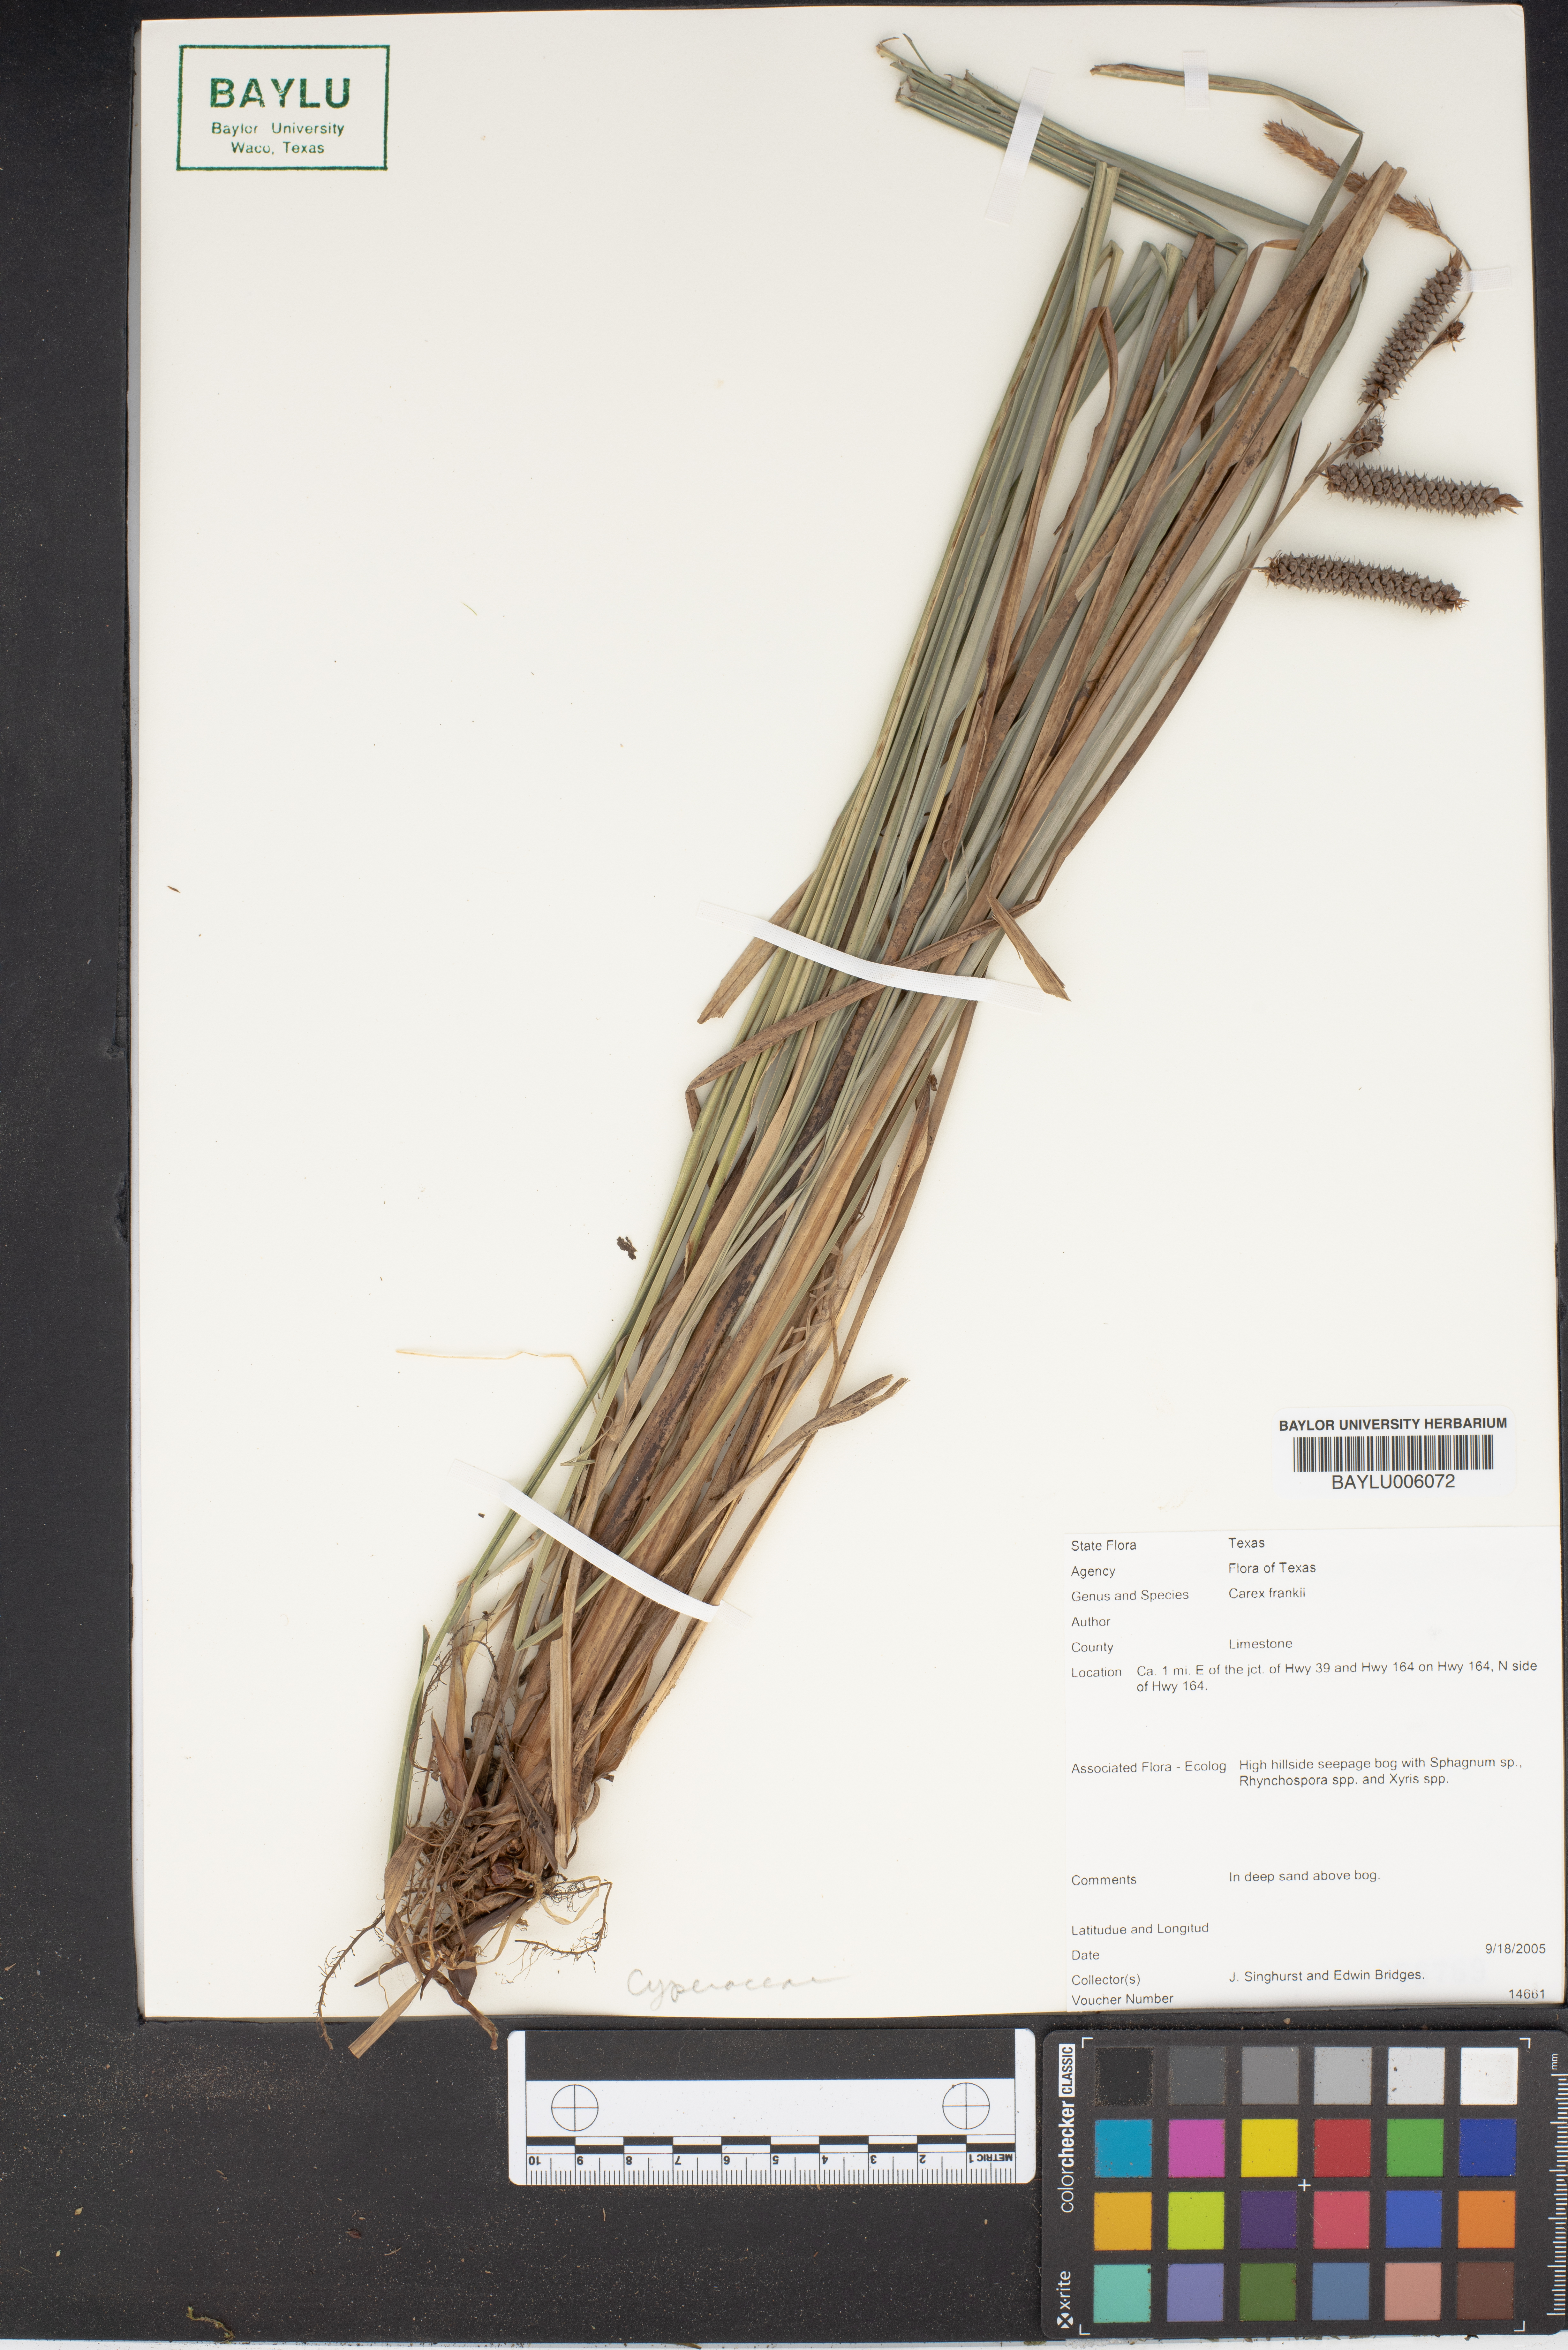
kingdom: Plantae
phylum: Tracheophyta
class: Liliopsida
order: Poales
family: Cyperaceae
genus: Carex
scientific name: Carex frankii
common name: Frank's sedge
